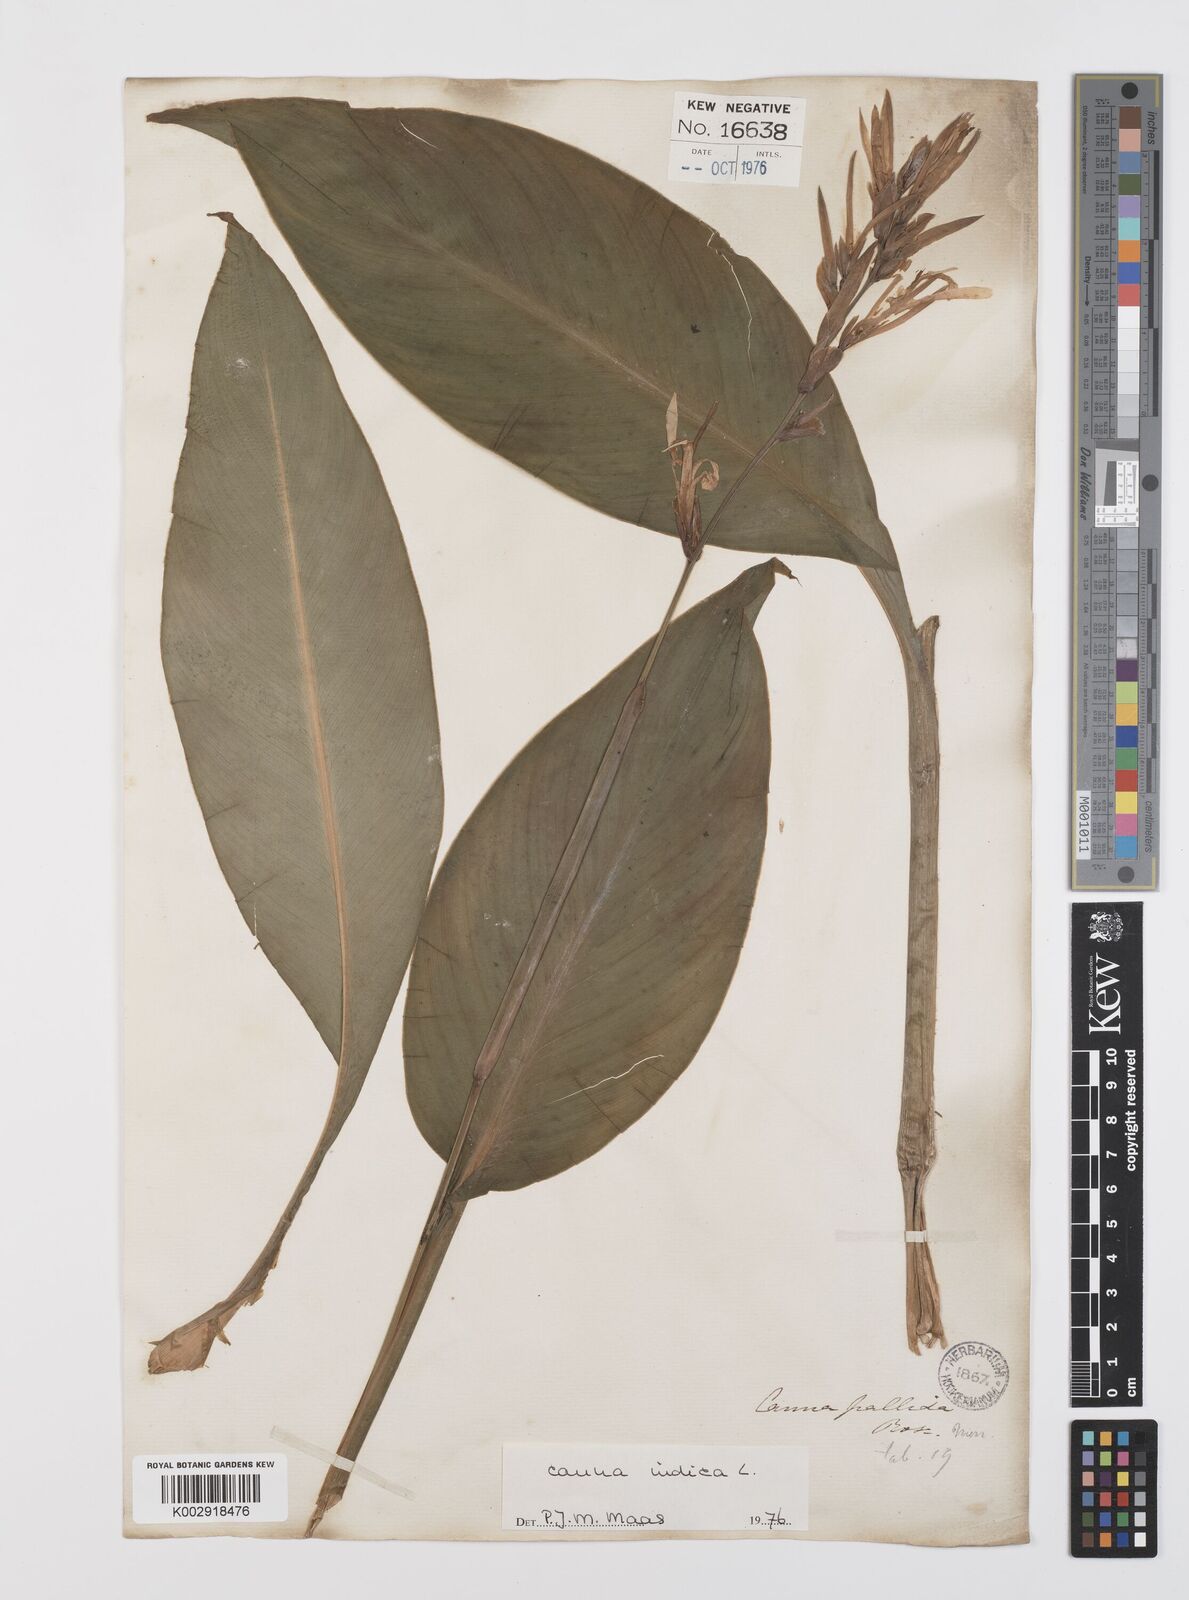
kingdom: Plantae
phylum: Tracheophyta
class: Liliopsida
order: Zingiberales
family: Cannaceae
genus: Canna
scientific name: Canna indica
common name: Indian shot
